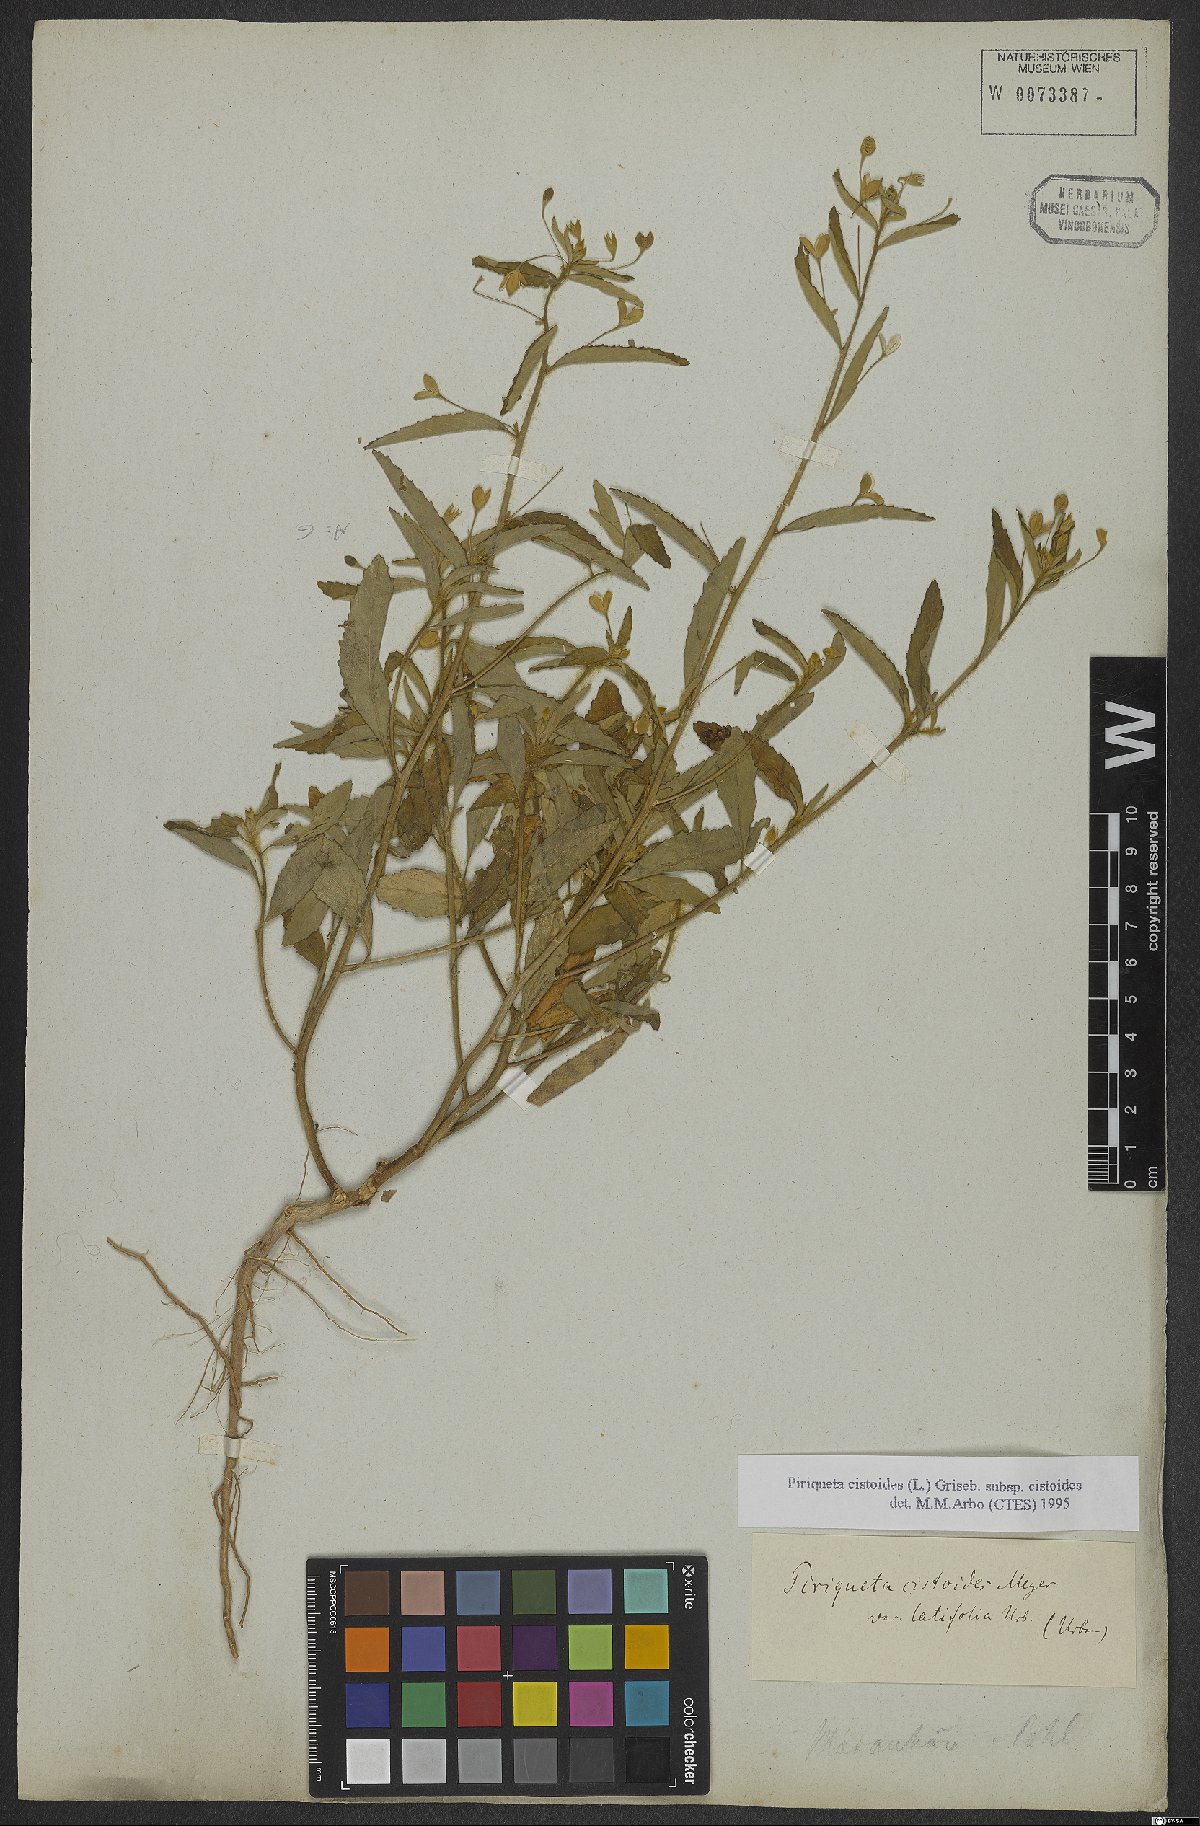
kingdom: Plantae
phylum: Tracheophyta
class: Magnoliopsida
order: Malpighiales
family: Turneraceae
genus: Piriqueta
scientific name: Piriqueta cistoides
